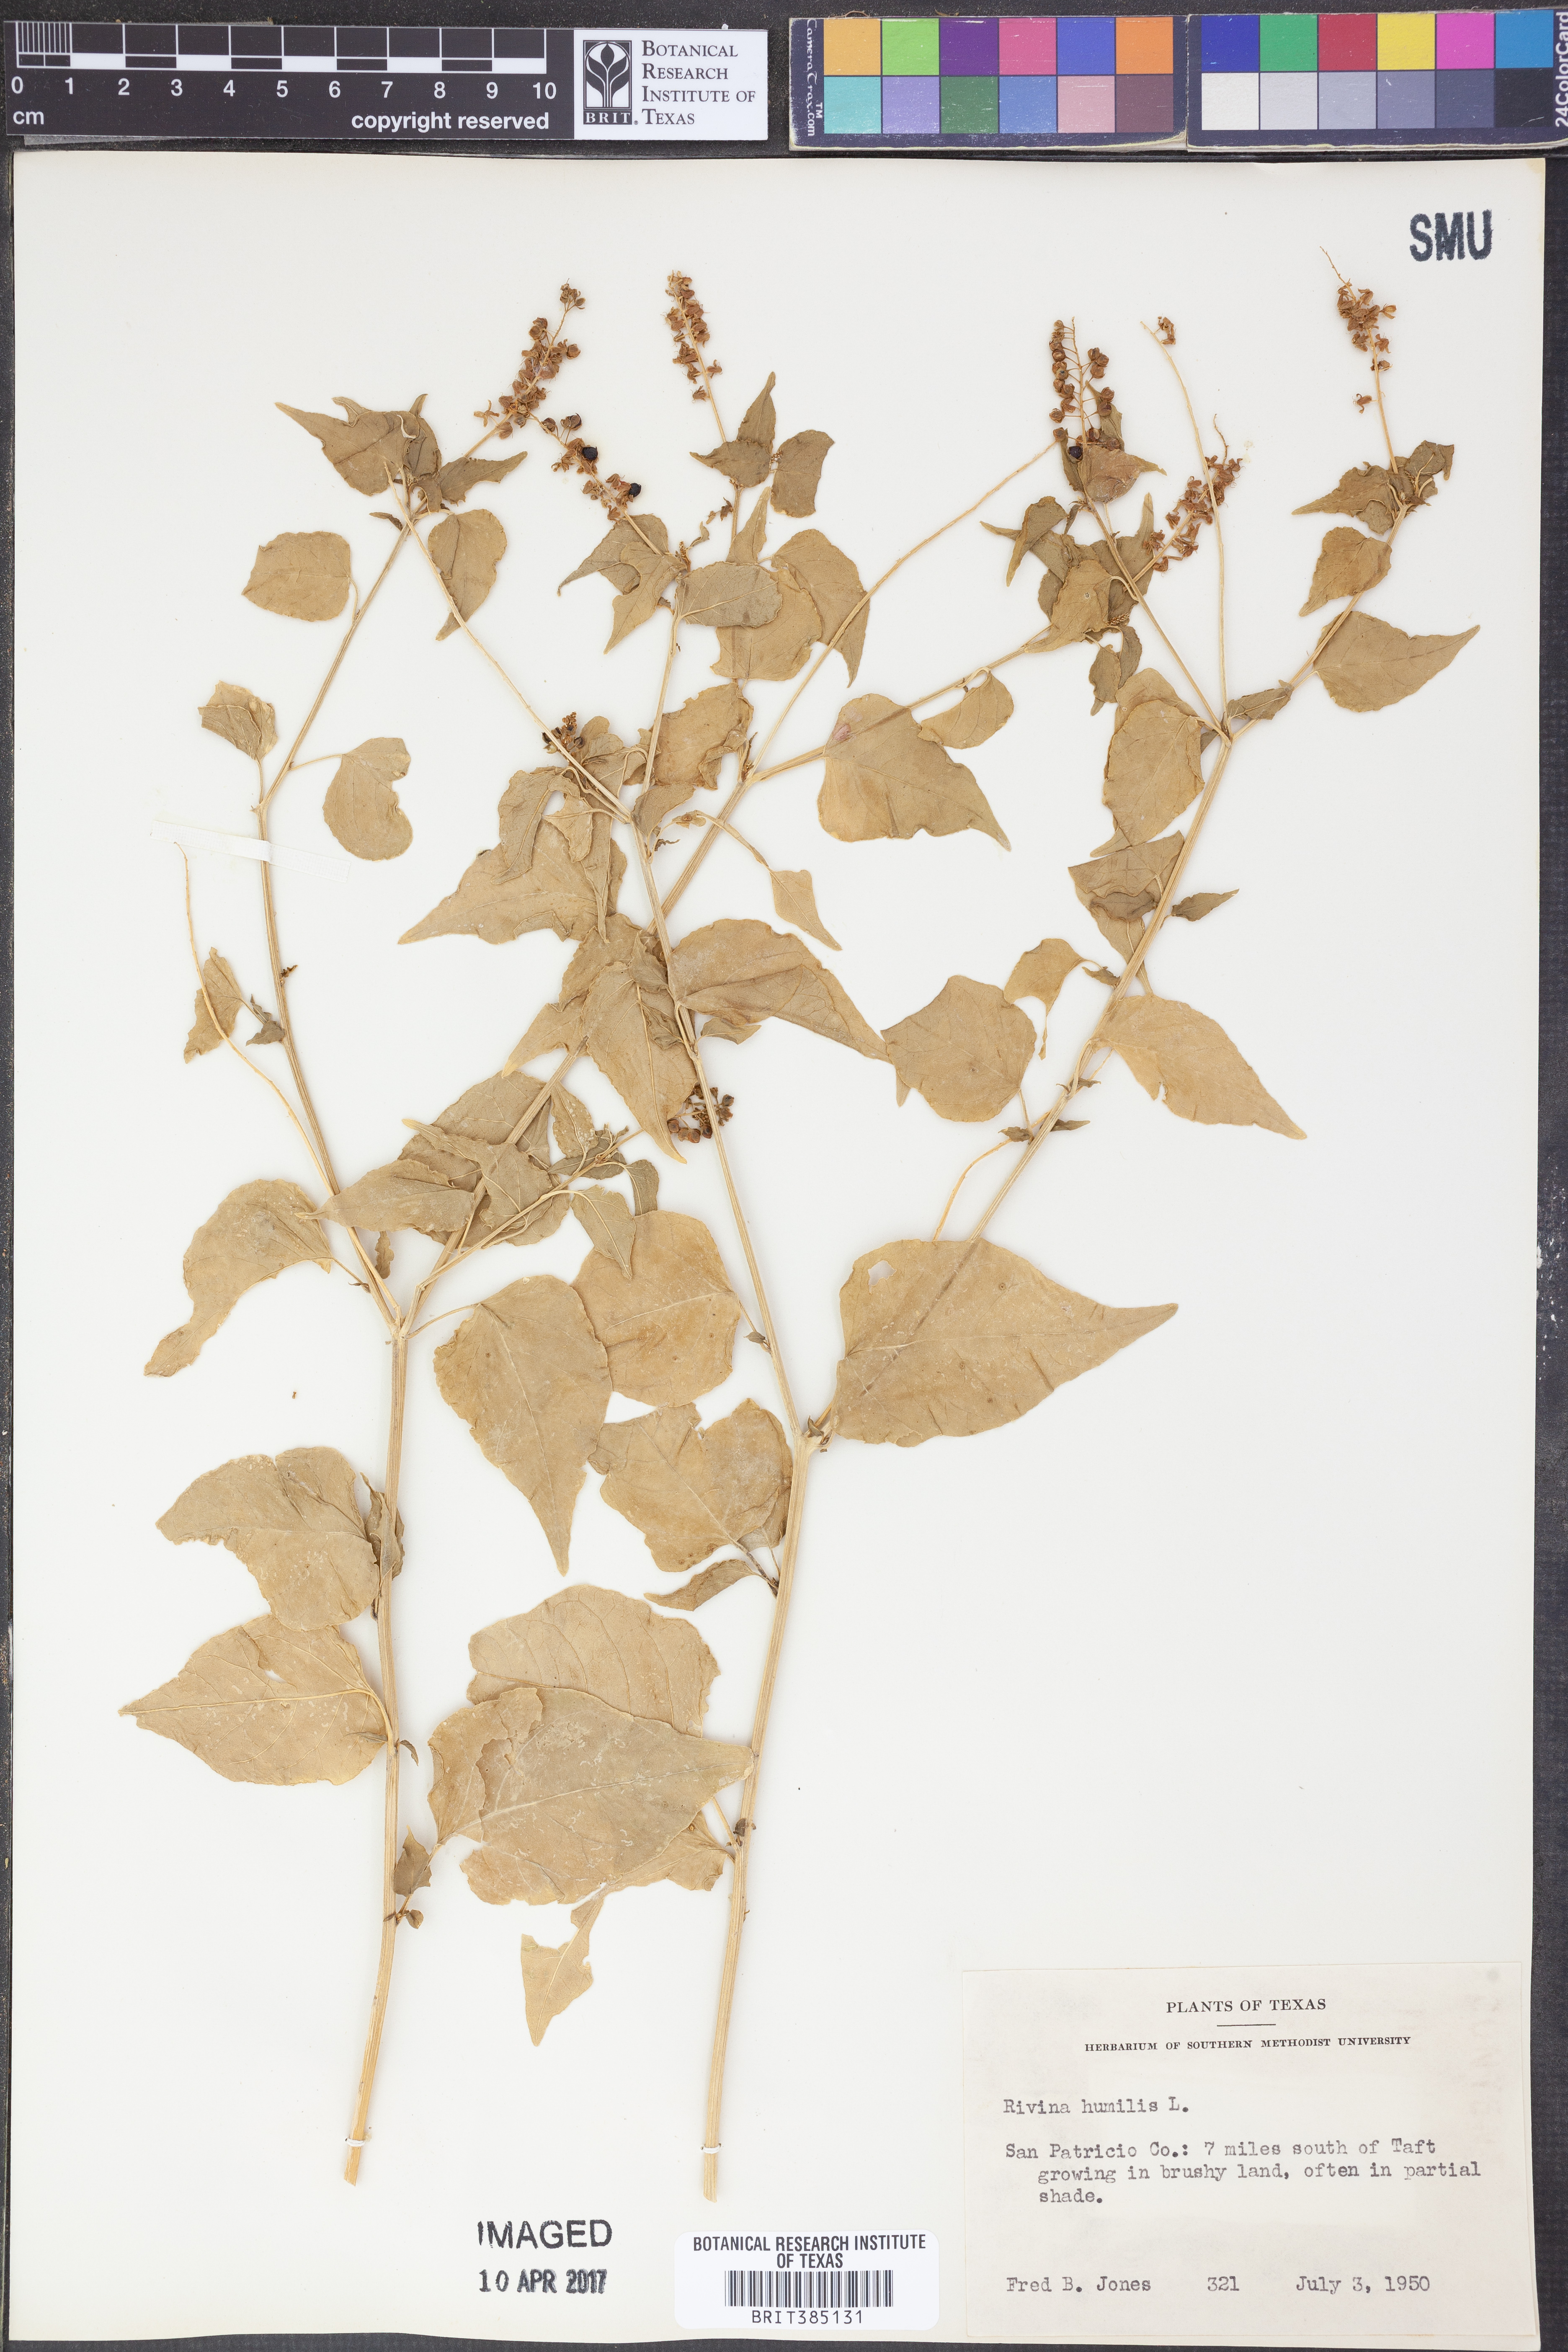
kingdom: Plantae
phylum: Tracheophyta
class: Magnoliopsida
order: Caryophyllales
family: Phytolaccaceae
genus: Rivina
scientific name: Rivina humilis
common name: Rougeplant
